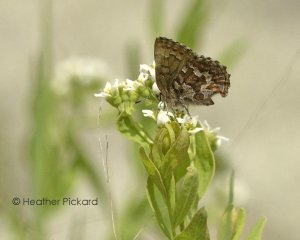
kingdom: Animalia
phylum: Arthropoda
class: Insecta
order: Lepidoptera
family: Lycaenidae
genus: Incisalia
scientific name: Incisalia niphon
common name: Eastern Pine Elfin
